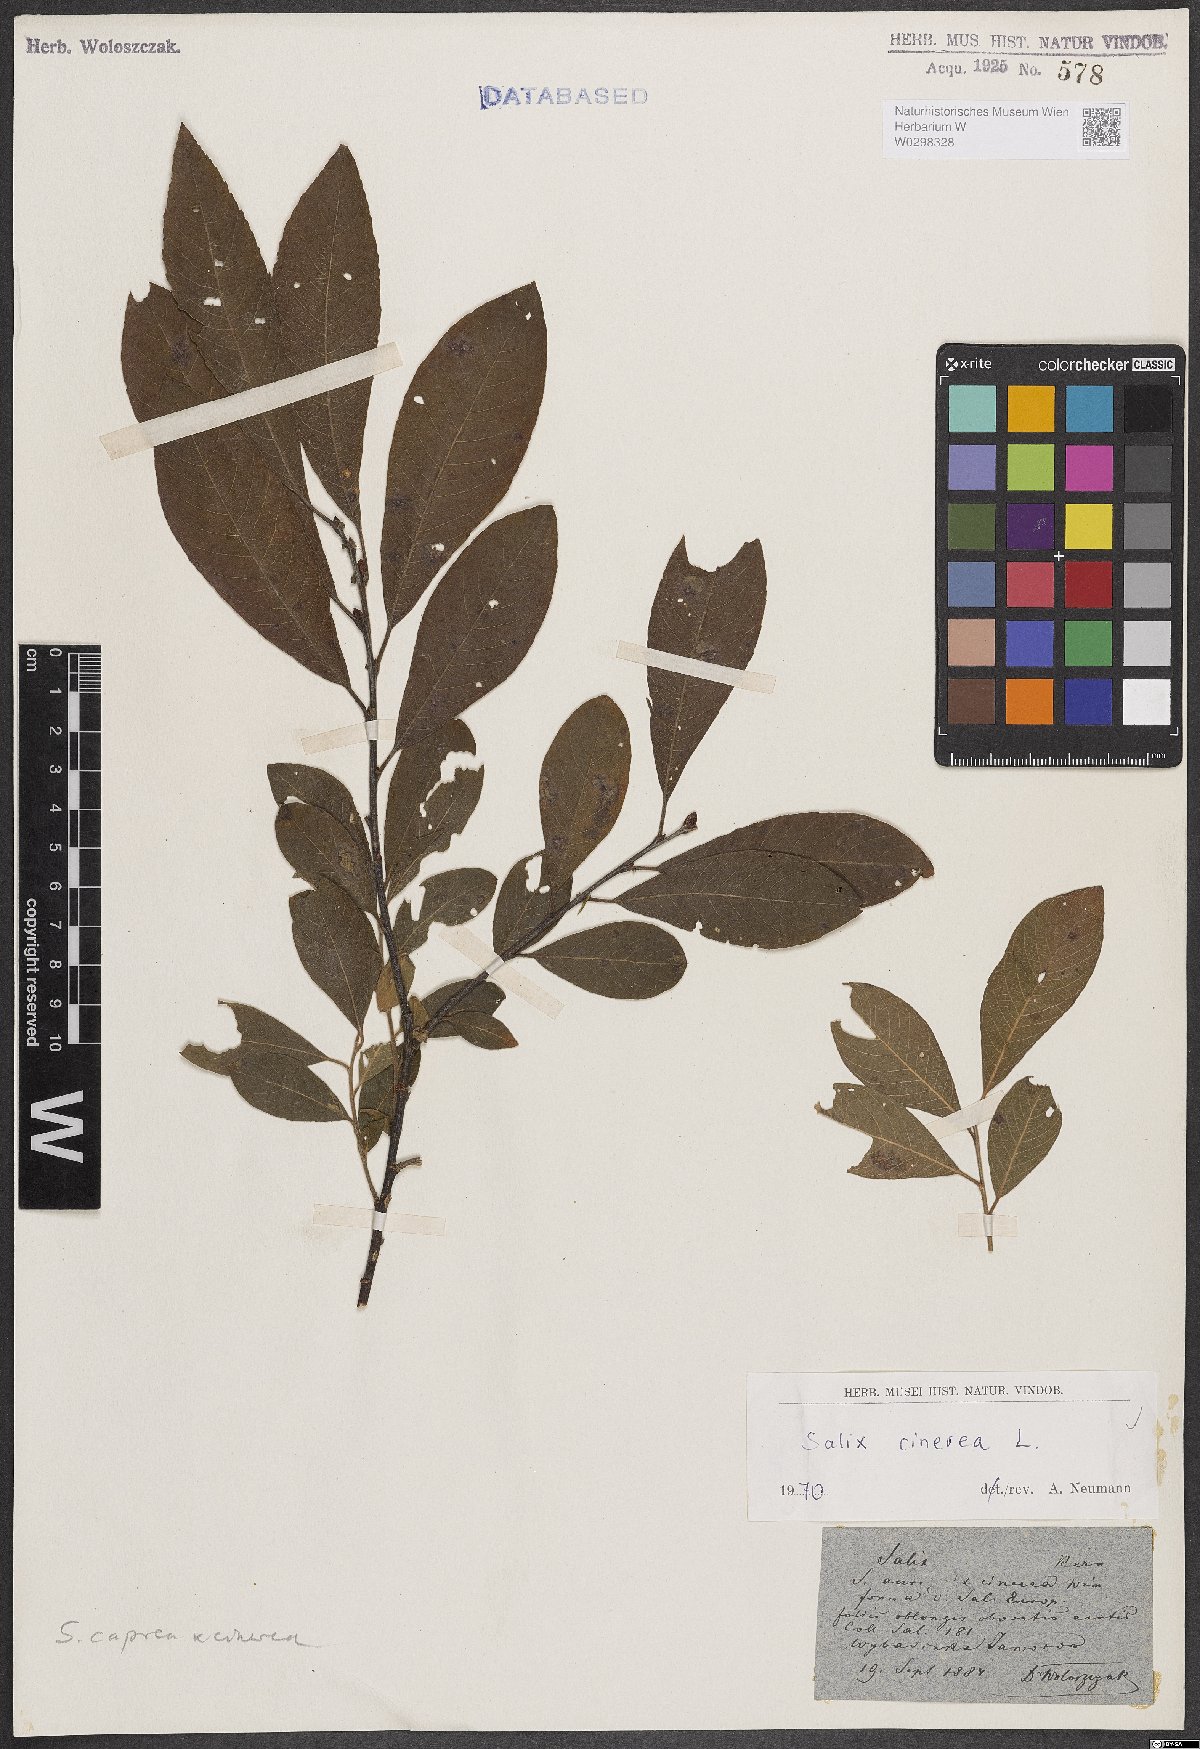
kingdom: Plantae
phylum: Tracheophyta
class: Magnoliopsida
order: Malpighiales
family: Salicaceae
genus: Salix
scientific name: Salix cinerea
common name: Common sallow
